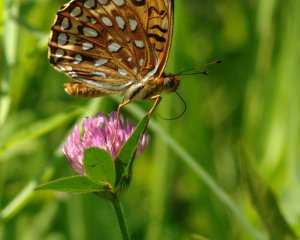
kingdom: Animalia
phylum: Arthropoda
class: Insecta
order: Lepidoptera
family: Nymphalidae
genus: Speyeria
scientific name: Speyeria atlantis
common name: Atlantis Fritillary
